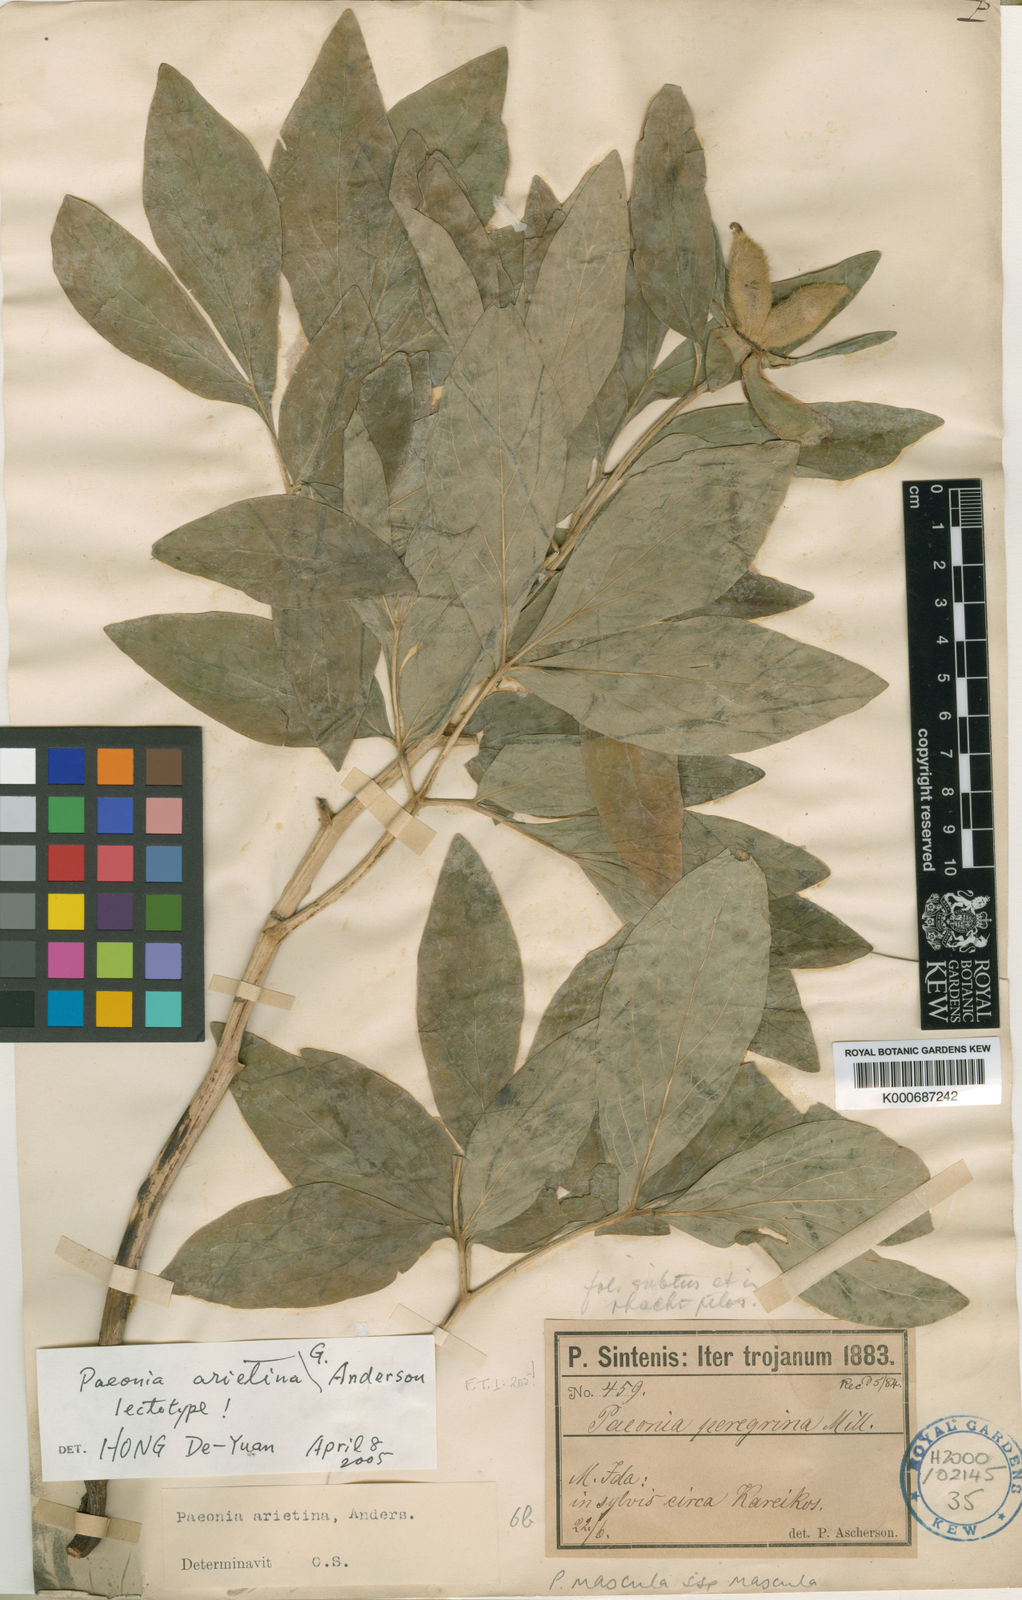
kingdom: Plantae
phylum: Tracheophyta
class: Magnoliopsida
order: Saxifragales
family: Paeoniaceae
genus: Paeonia
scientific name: Paeonia mascula
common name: Peony
